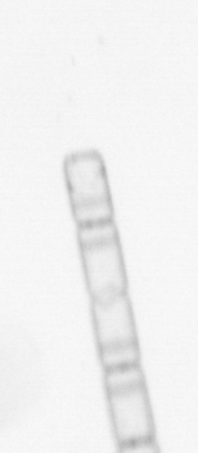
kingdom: Chromista
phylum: Ochrophyta
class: Bacillariophyceae
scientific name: Bacillariophyceae
